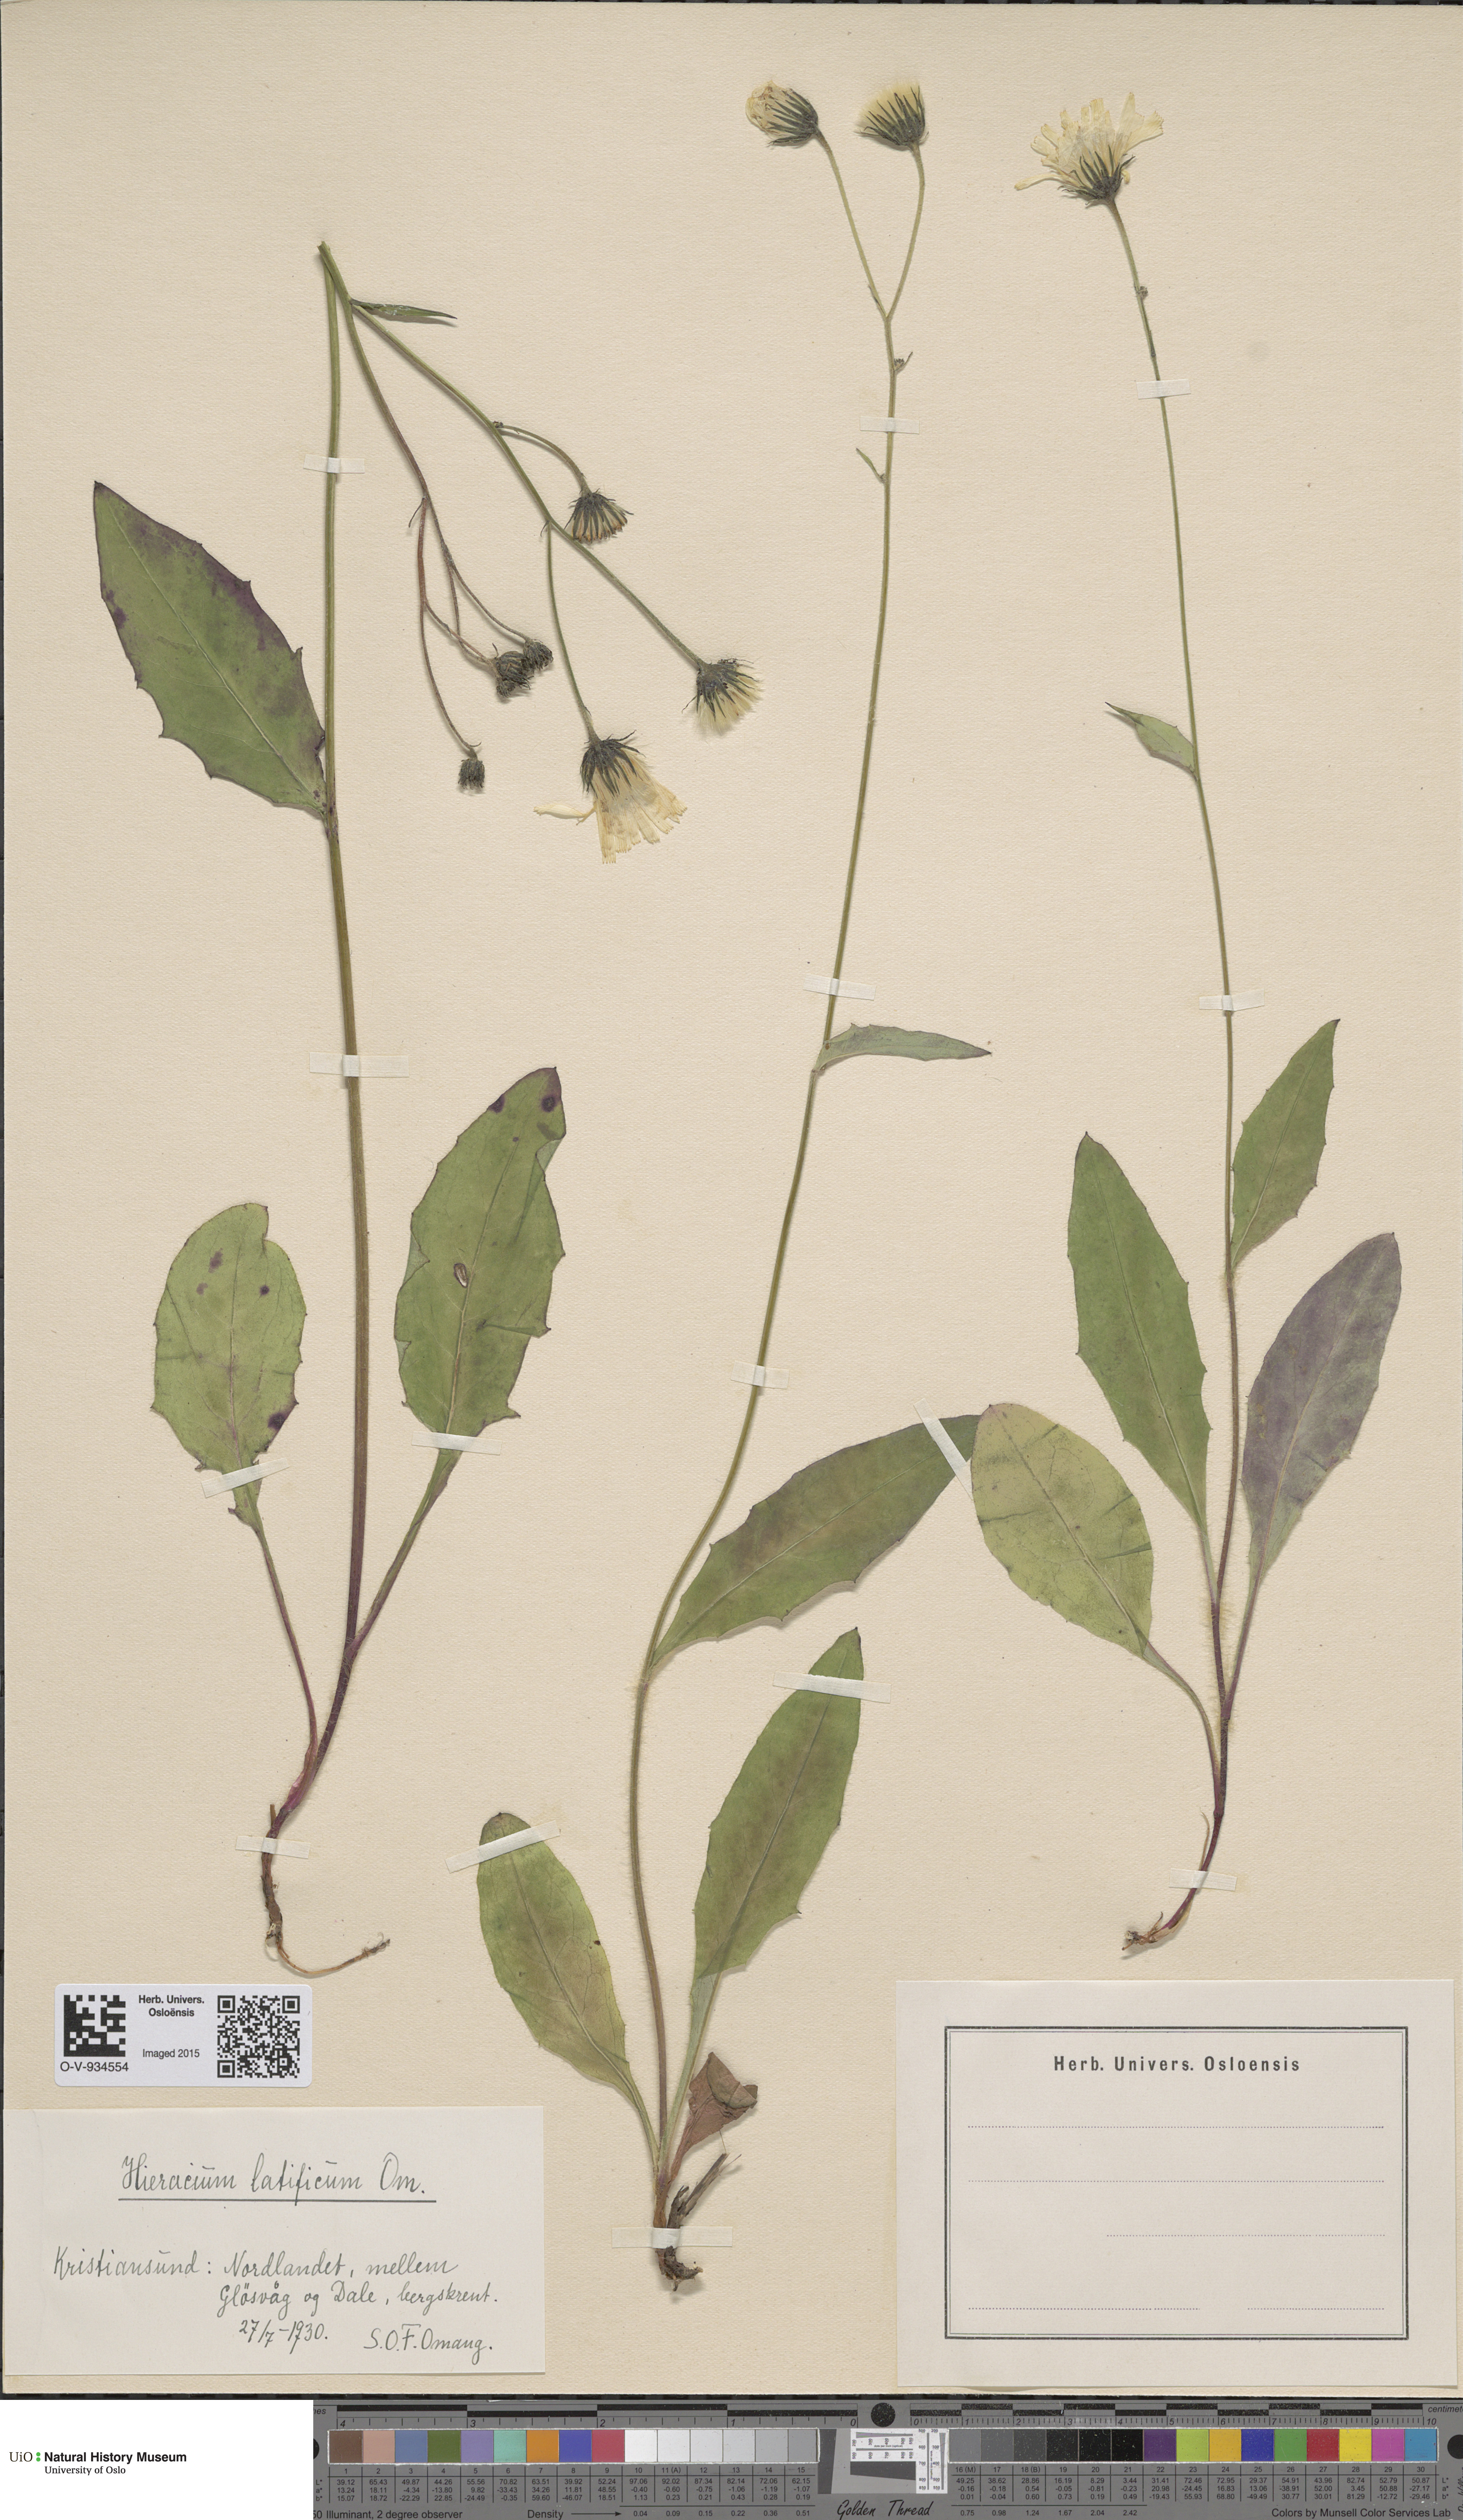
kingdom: Plantae
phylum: Tracheophyta
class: Magnoliopsida
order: Asterales
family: Asteraceae
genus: Hieracium
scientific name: Hieracium saxifragum
